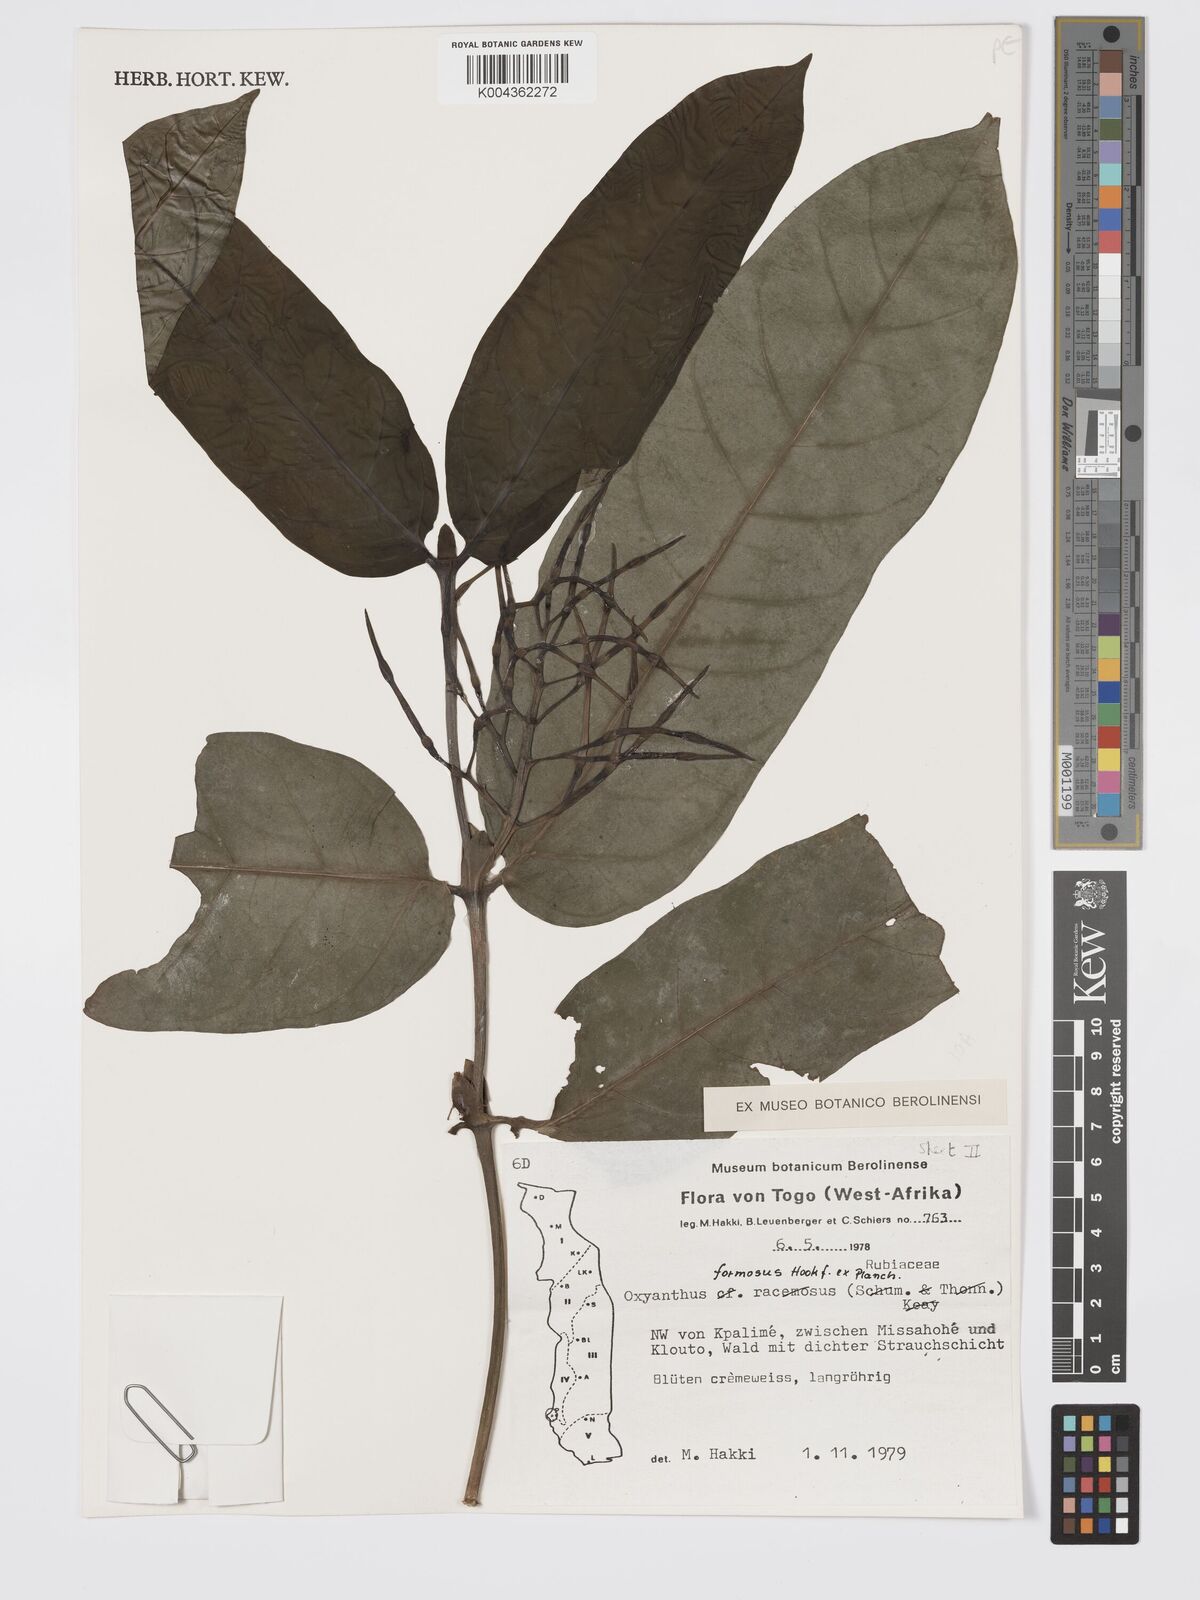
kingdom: Plantae
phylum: Tracheophyta
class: Magnoliopsida
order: Gentianales
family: Rubiaceae
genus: Oxyanthus
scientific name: Oxyanthus formosus
